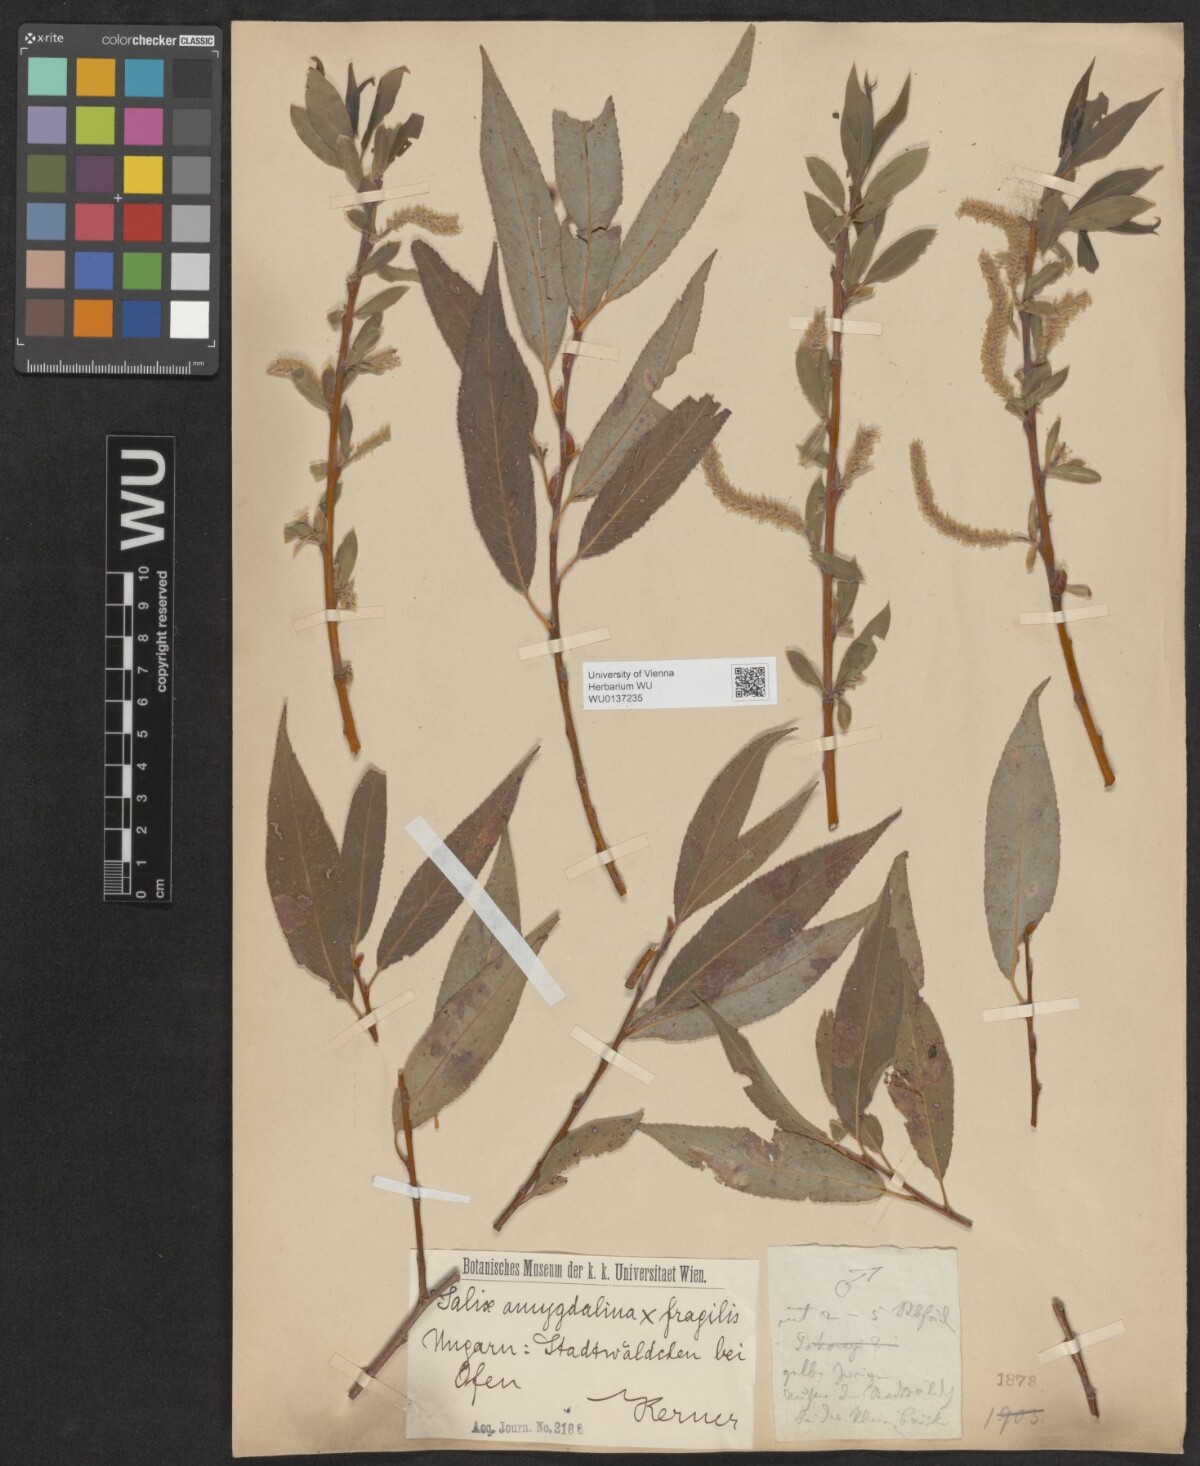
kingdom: Plantae
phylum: Tracheophyta
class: Magnoliopsida
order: Malpighiales
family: Salicaceae
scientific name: Salicaceae
